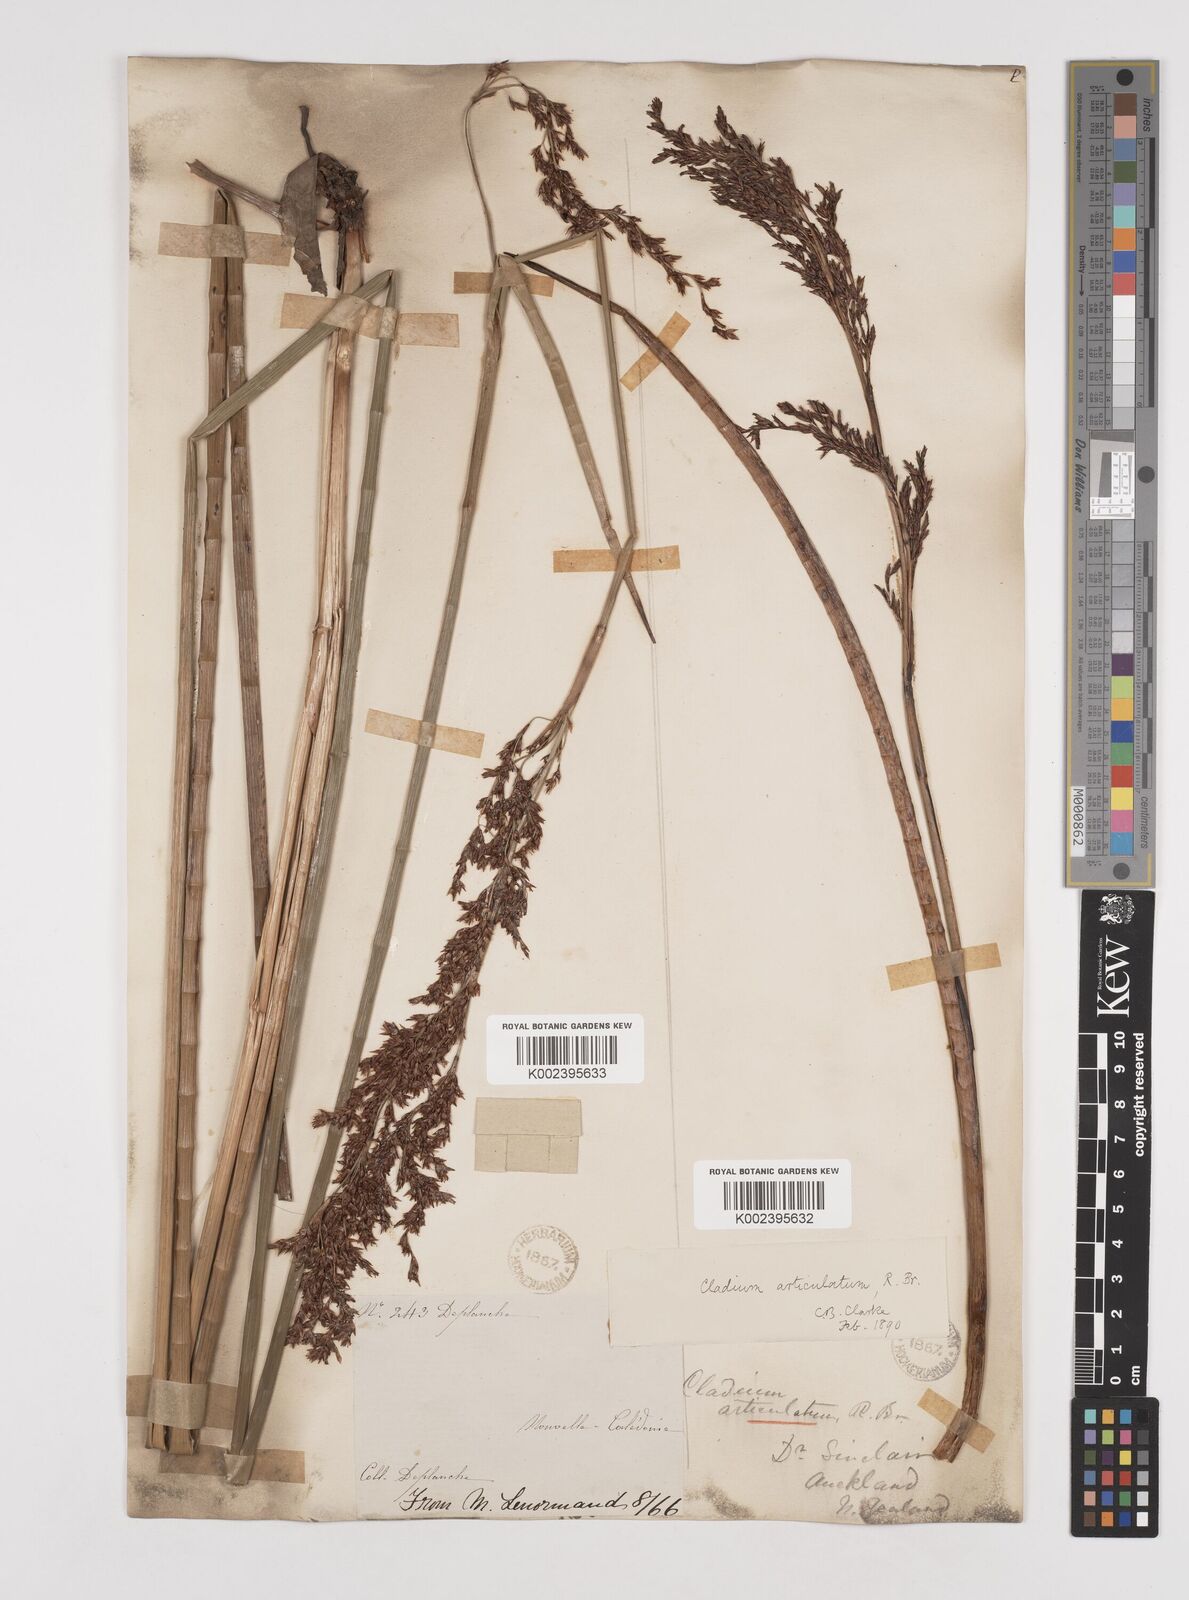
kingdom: Plantae
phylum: Tracheophyta
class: Liliopsida
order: Poales
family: Cyperaceae
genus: Machaerina
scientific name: Machaerina articulata
